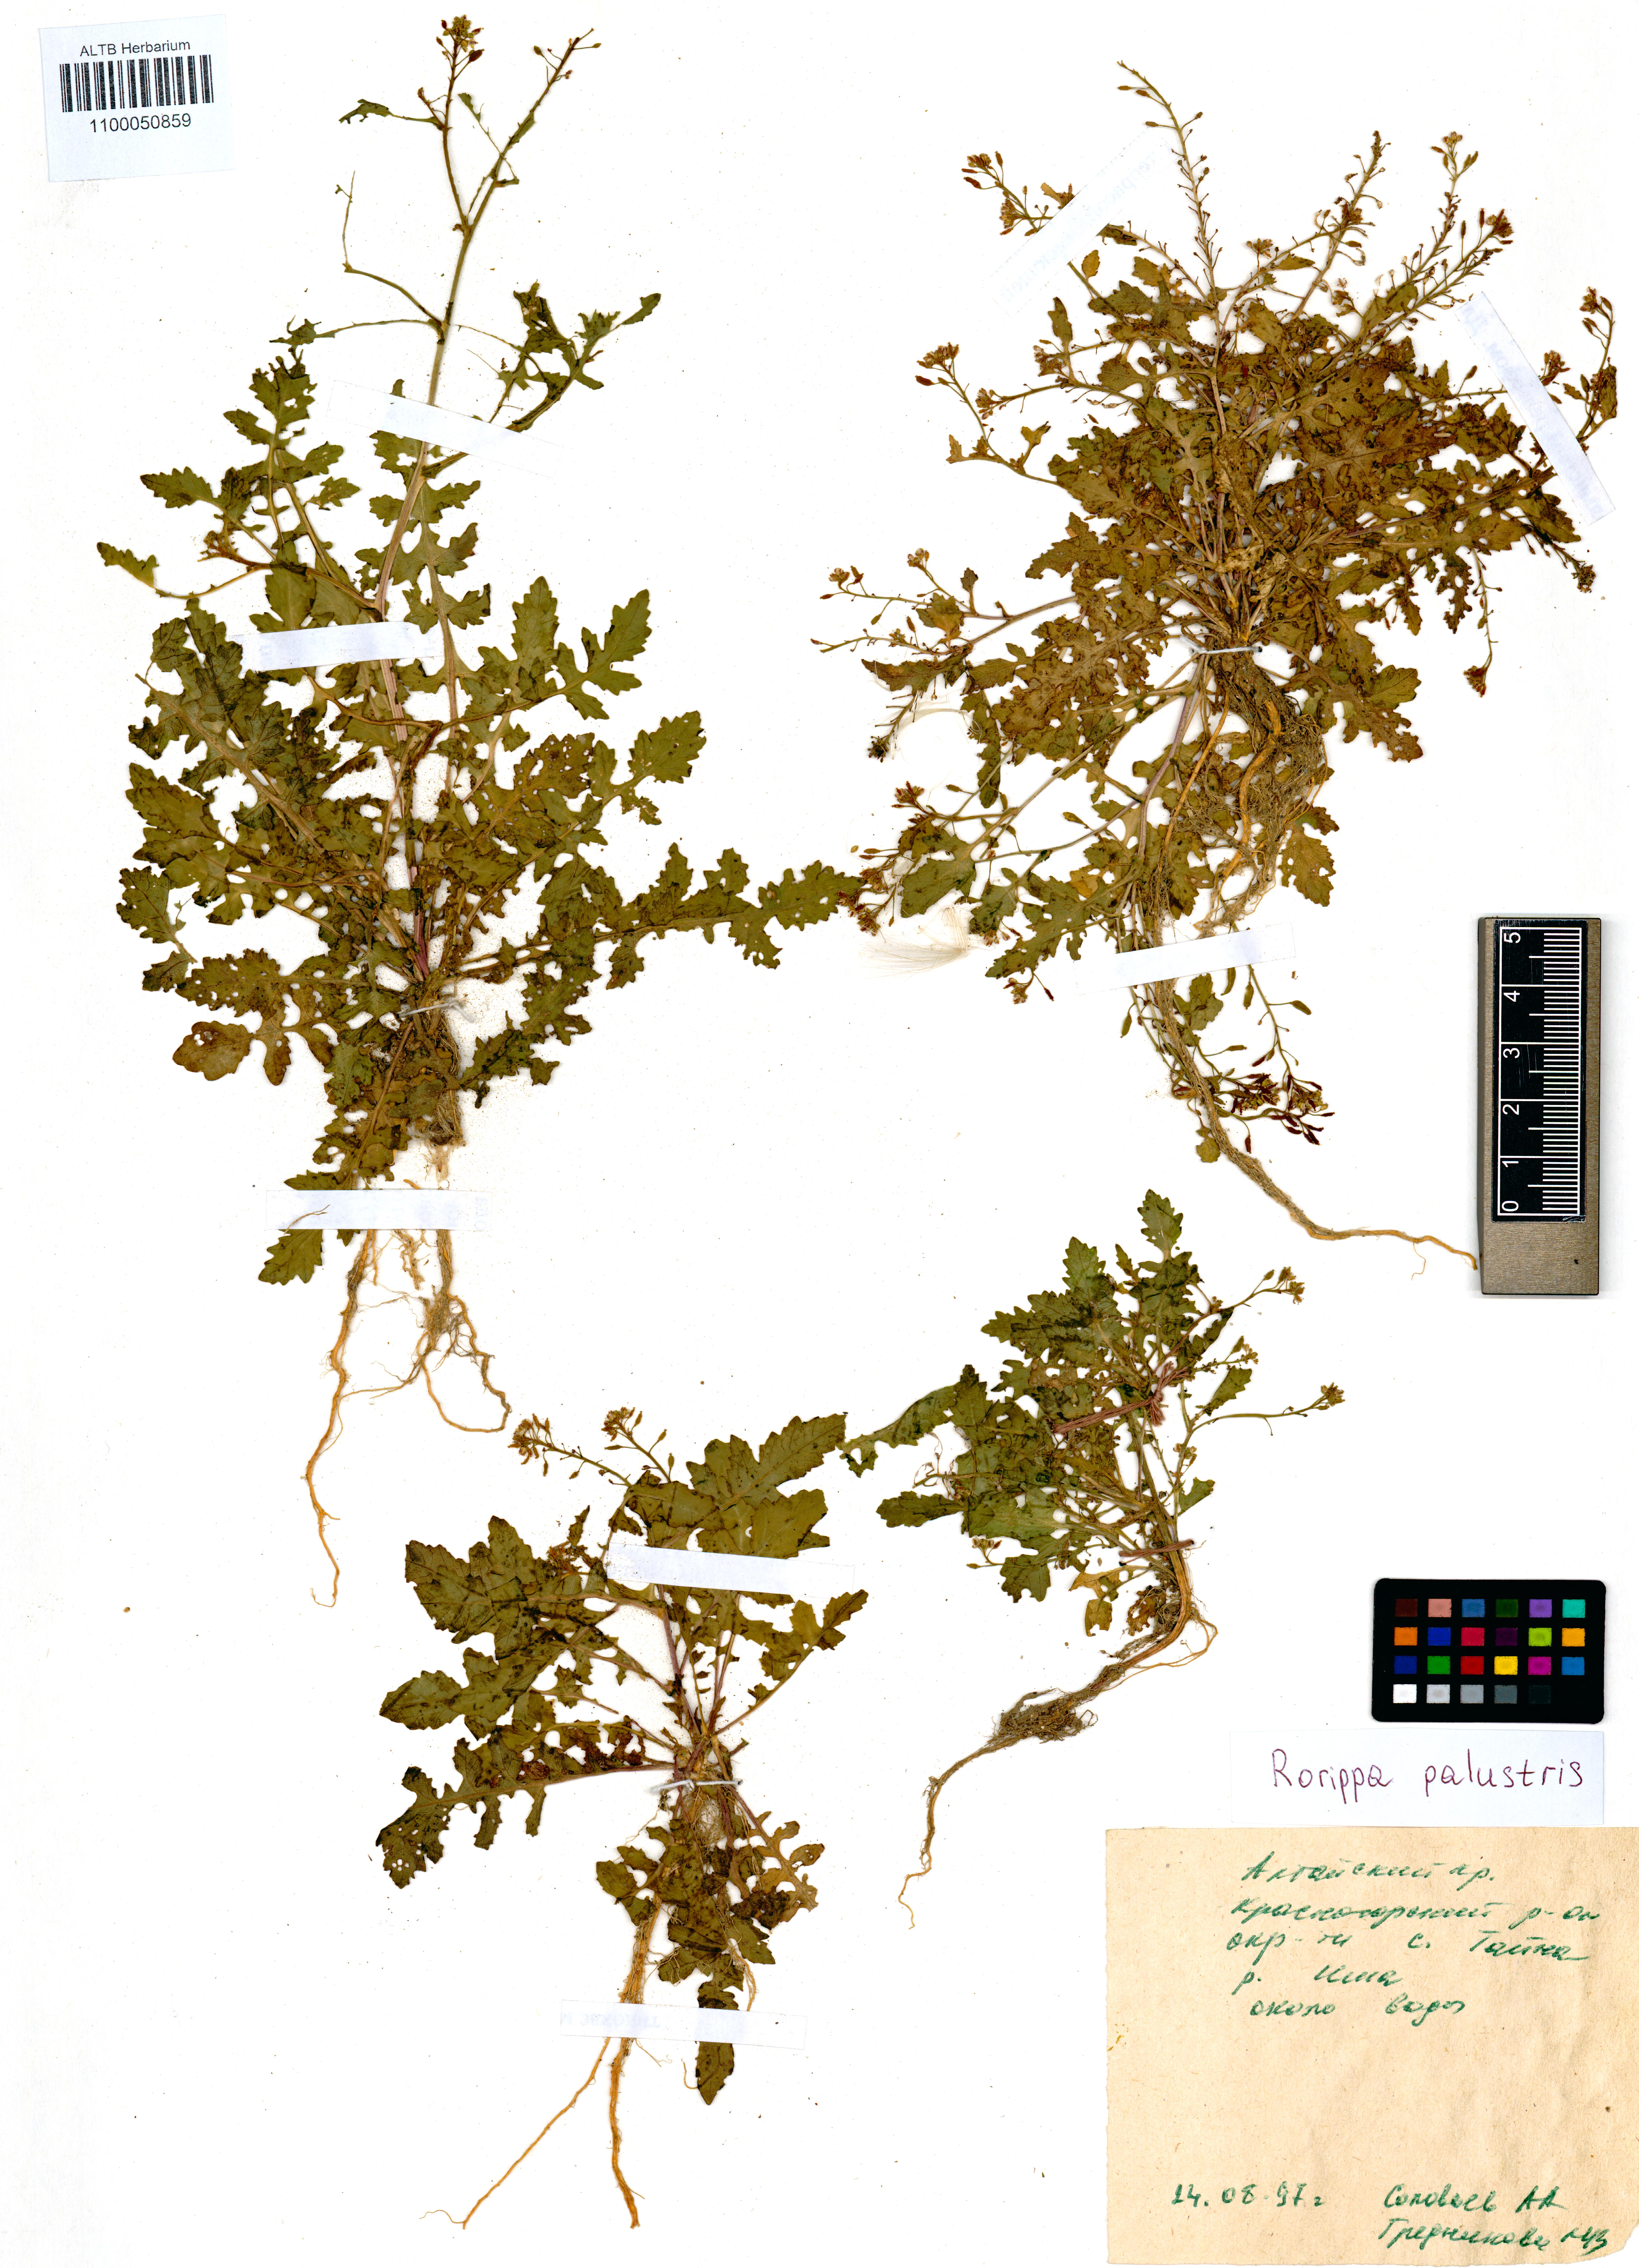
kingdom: Plantae
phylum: Tracheophyta
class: Magnoliopsida
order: Brassicales
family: Brassicaceae
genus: Rorippa
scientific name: Rorippa palustris
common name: Marsh yellow-cress
